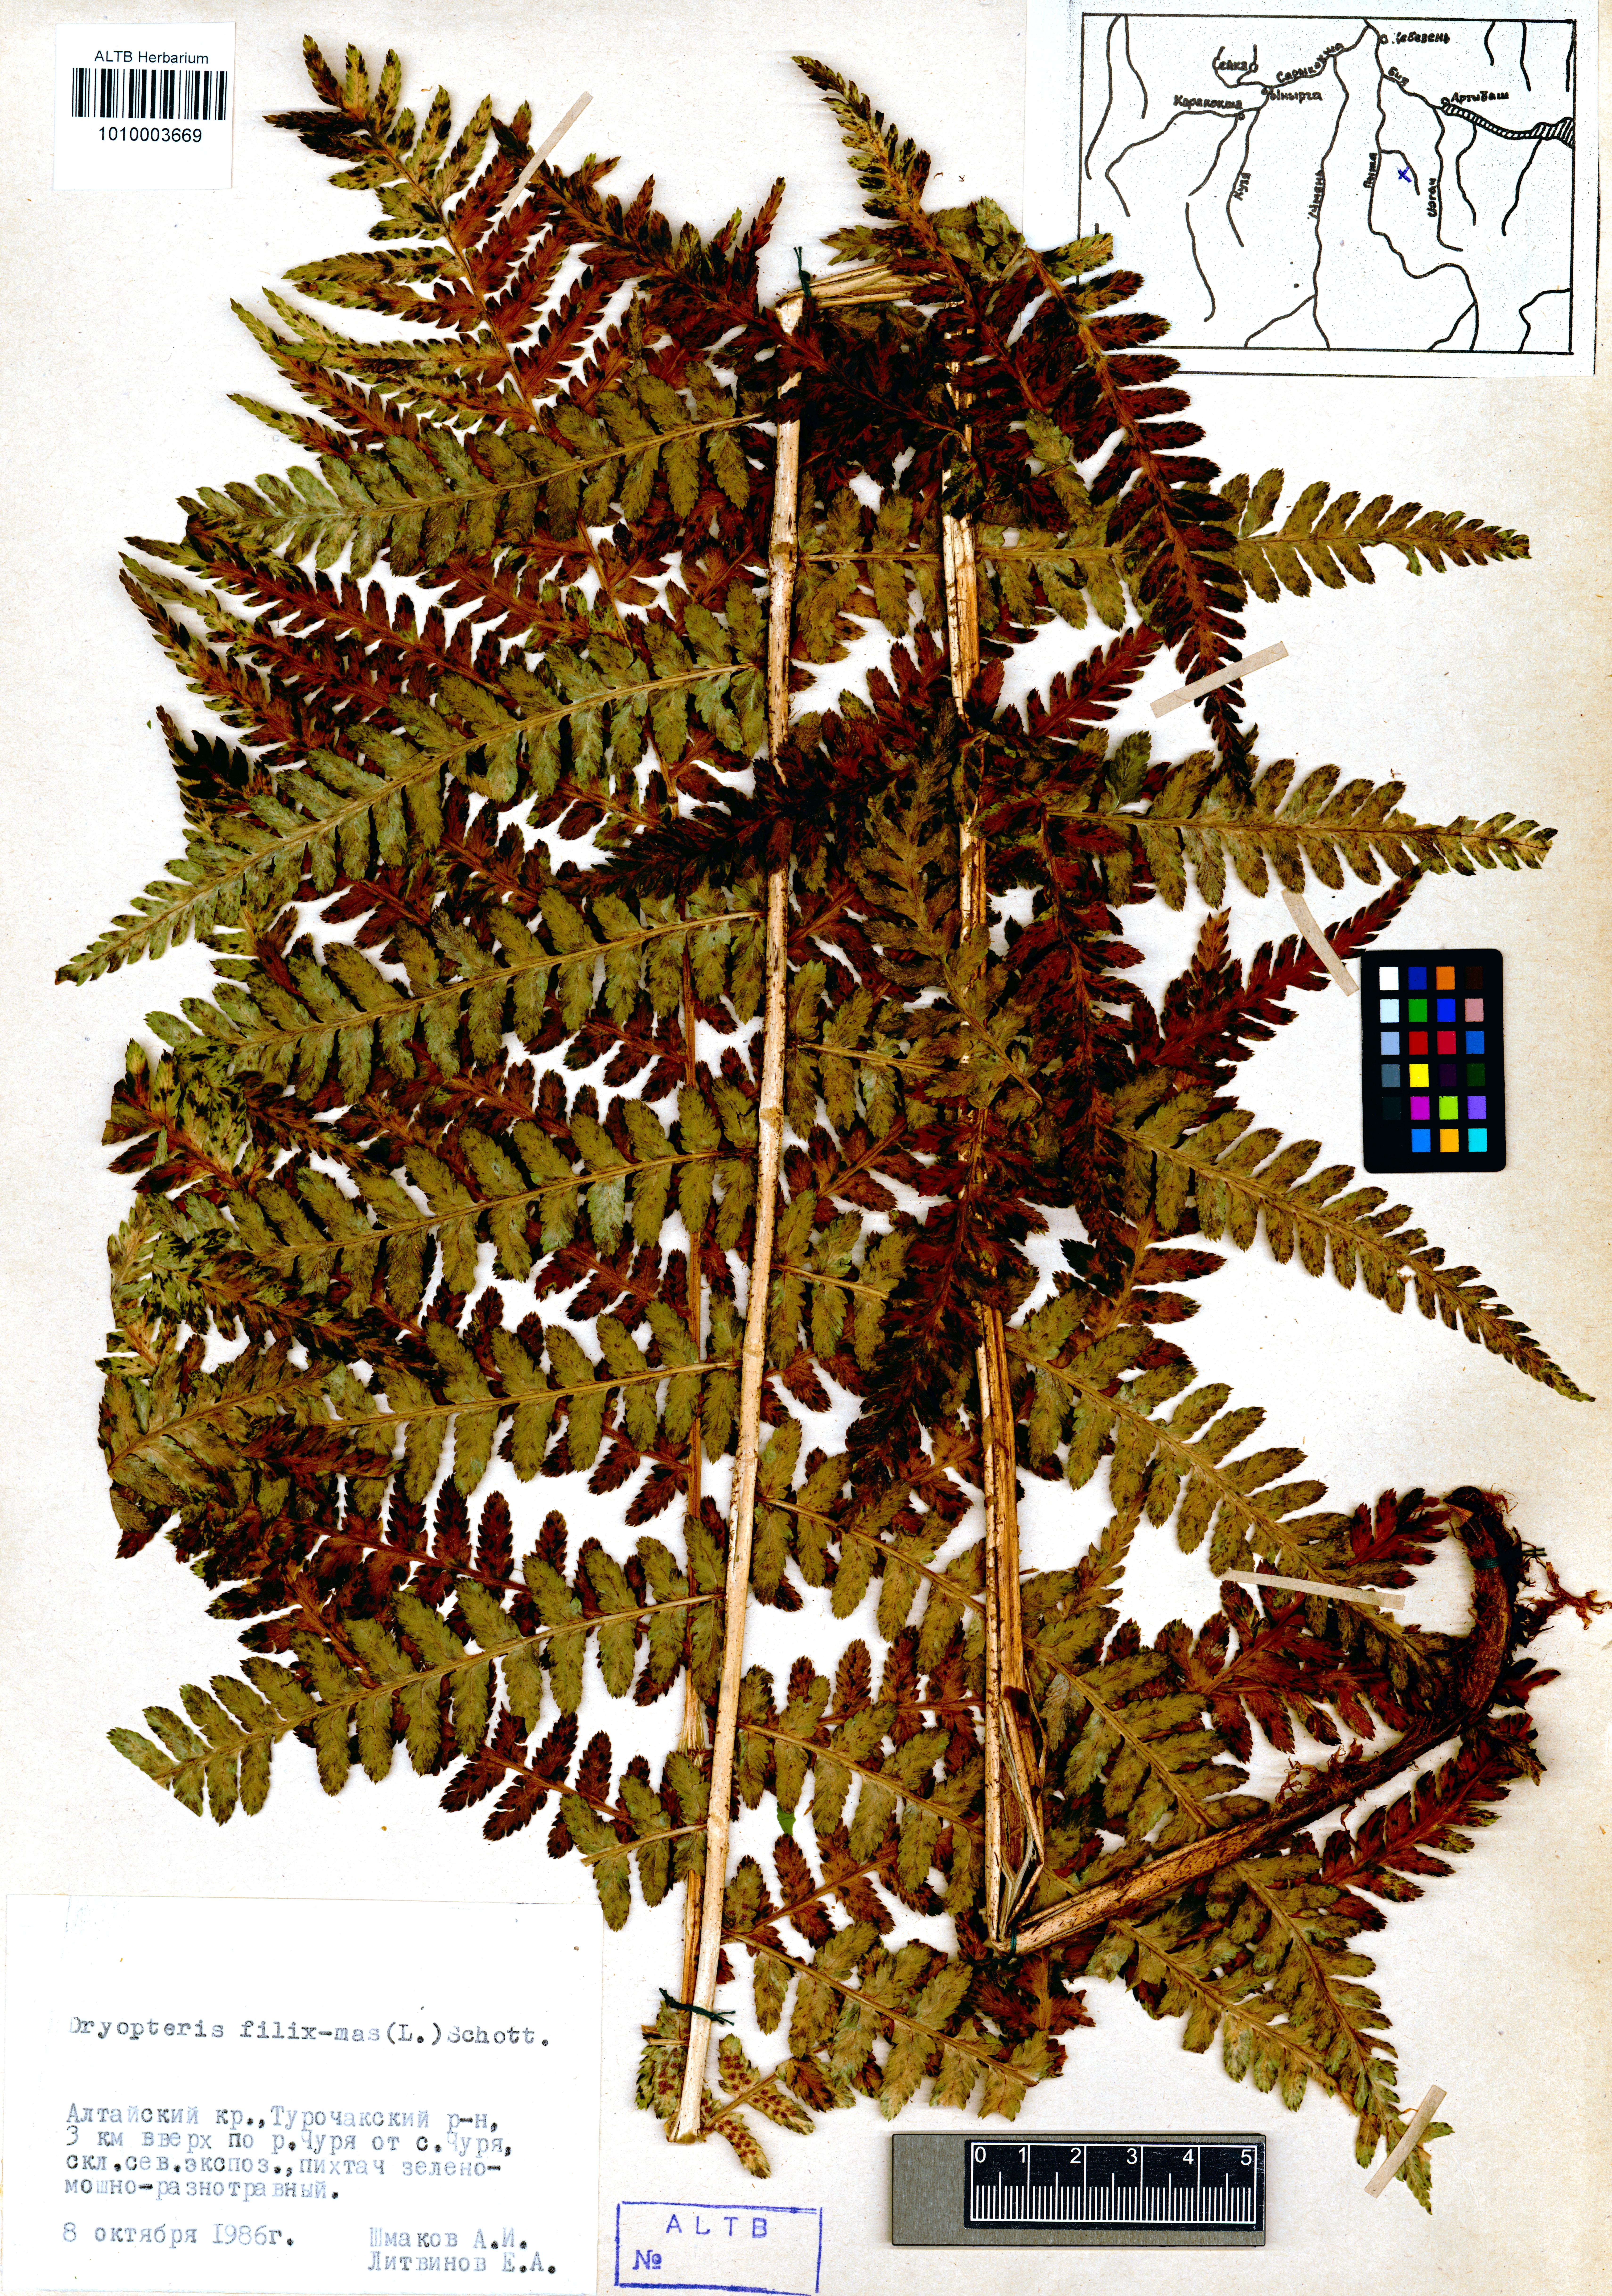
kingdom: Plantae
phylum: Tracheophyta
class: Polypodiopsida
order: Polypodiales
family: Dryopteridaceae
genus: Dryopteris
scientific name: Dryopteris filix-mas
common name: Male fern
